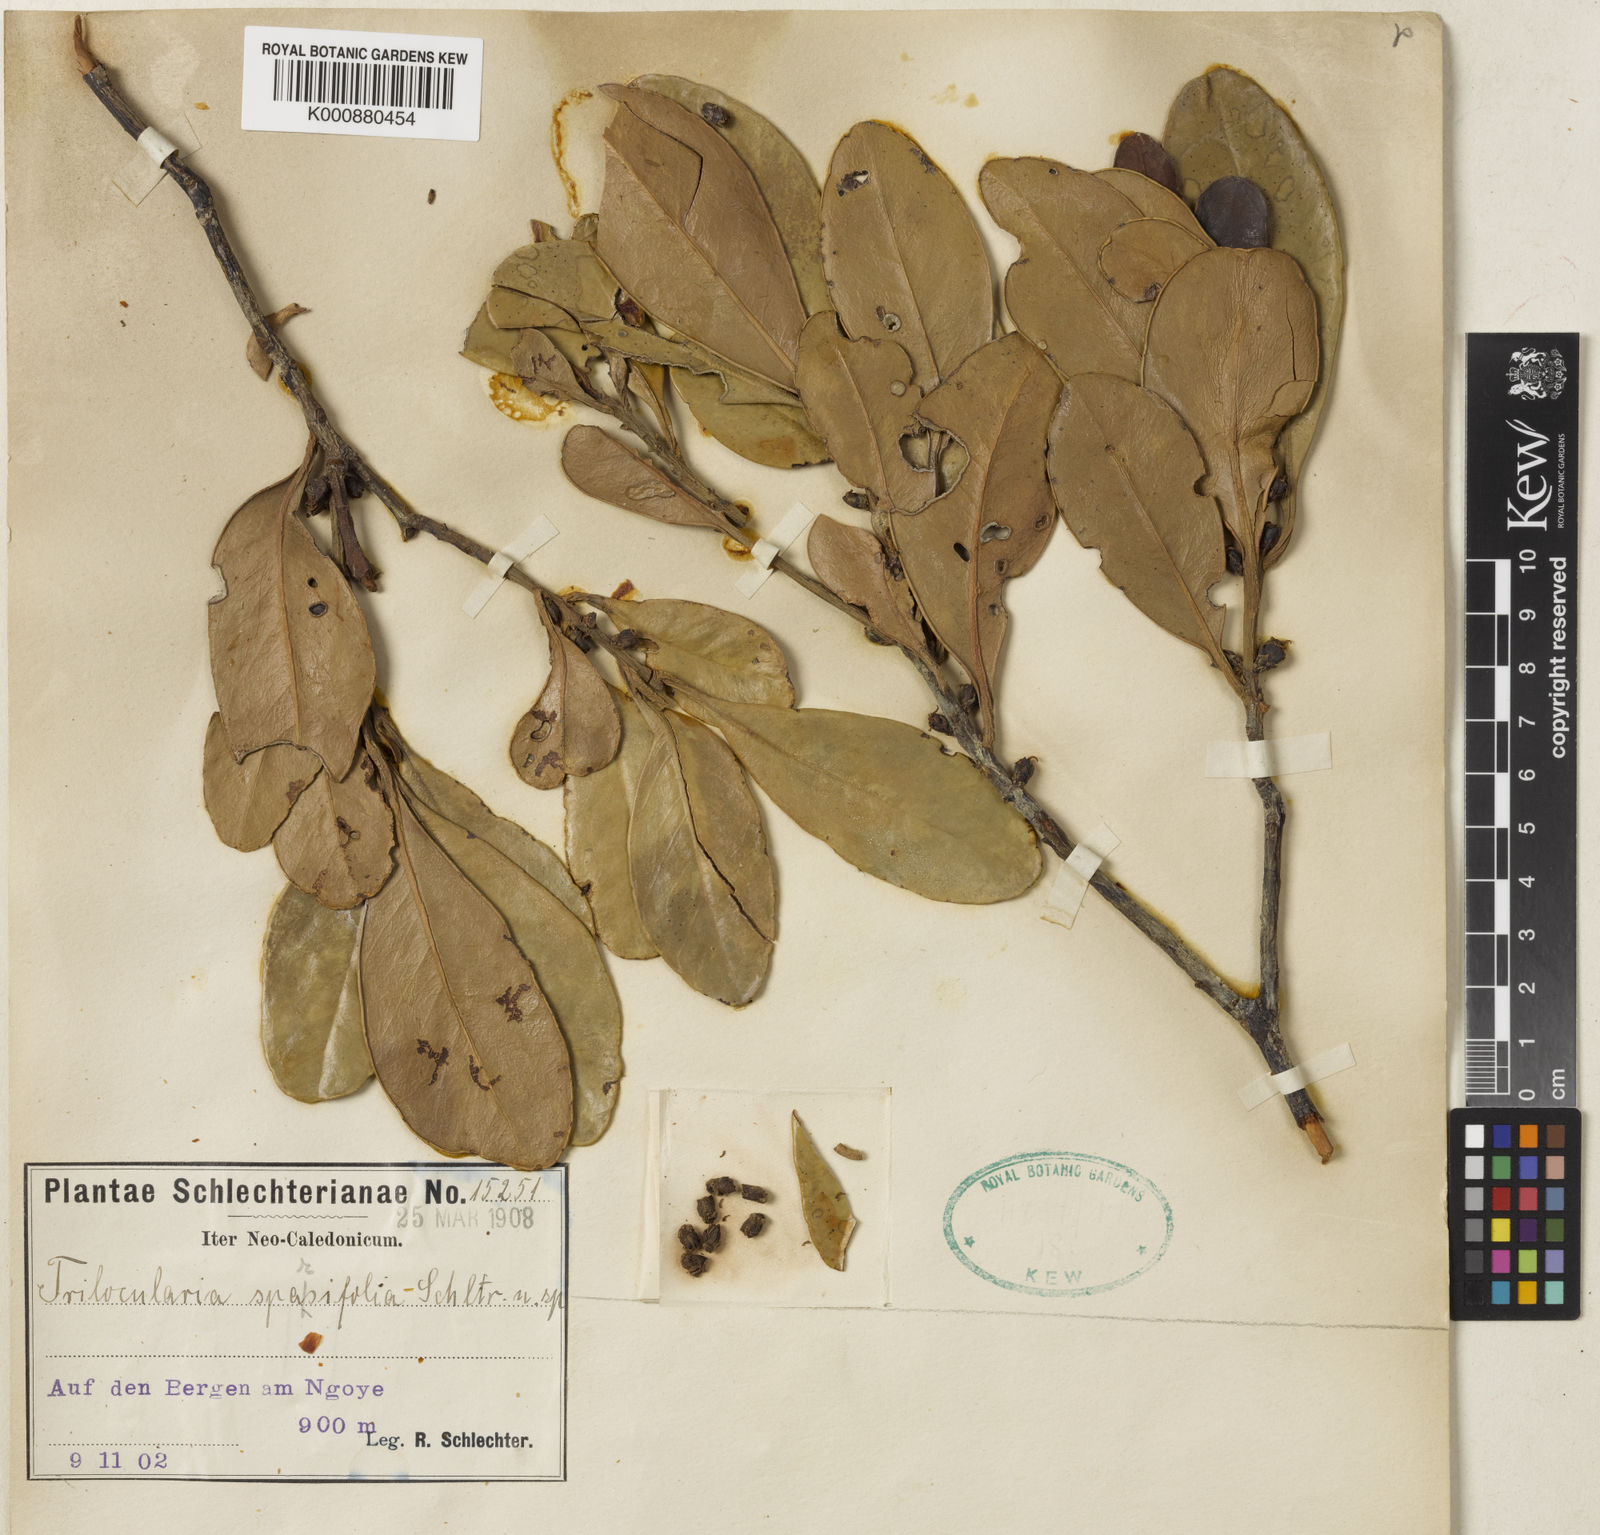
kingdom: Plantae
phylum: Tracheophyta
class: Magnoliopsida
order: Malpighiales
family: Balanopaceae
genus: Balanops
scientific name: Balanops
